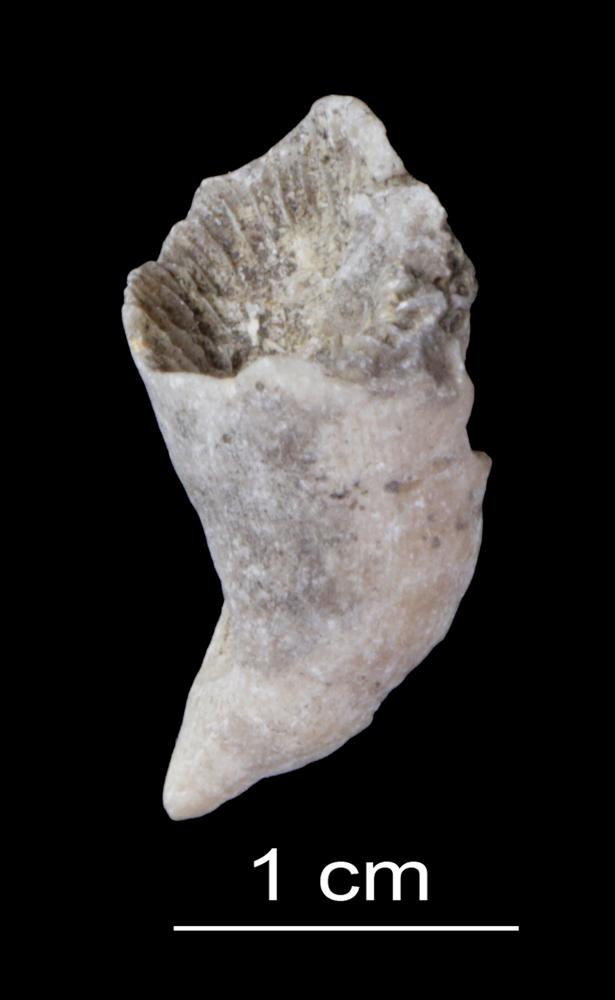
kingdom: Animalia
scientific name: Animalia
